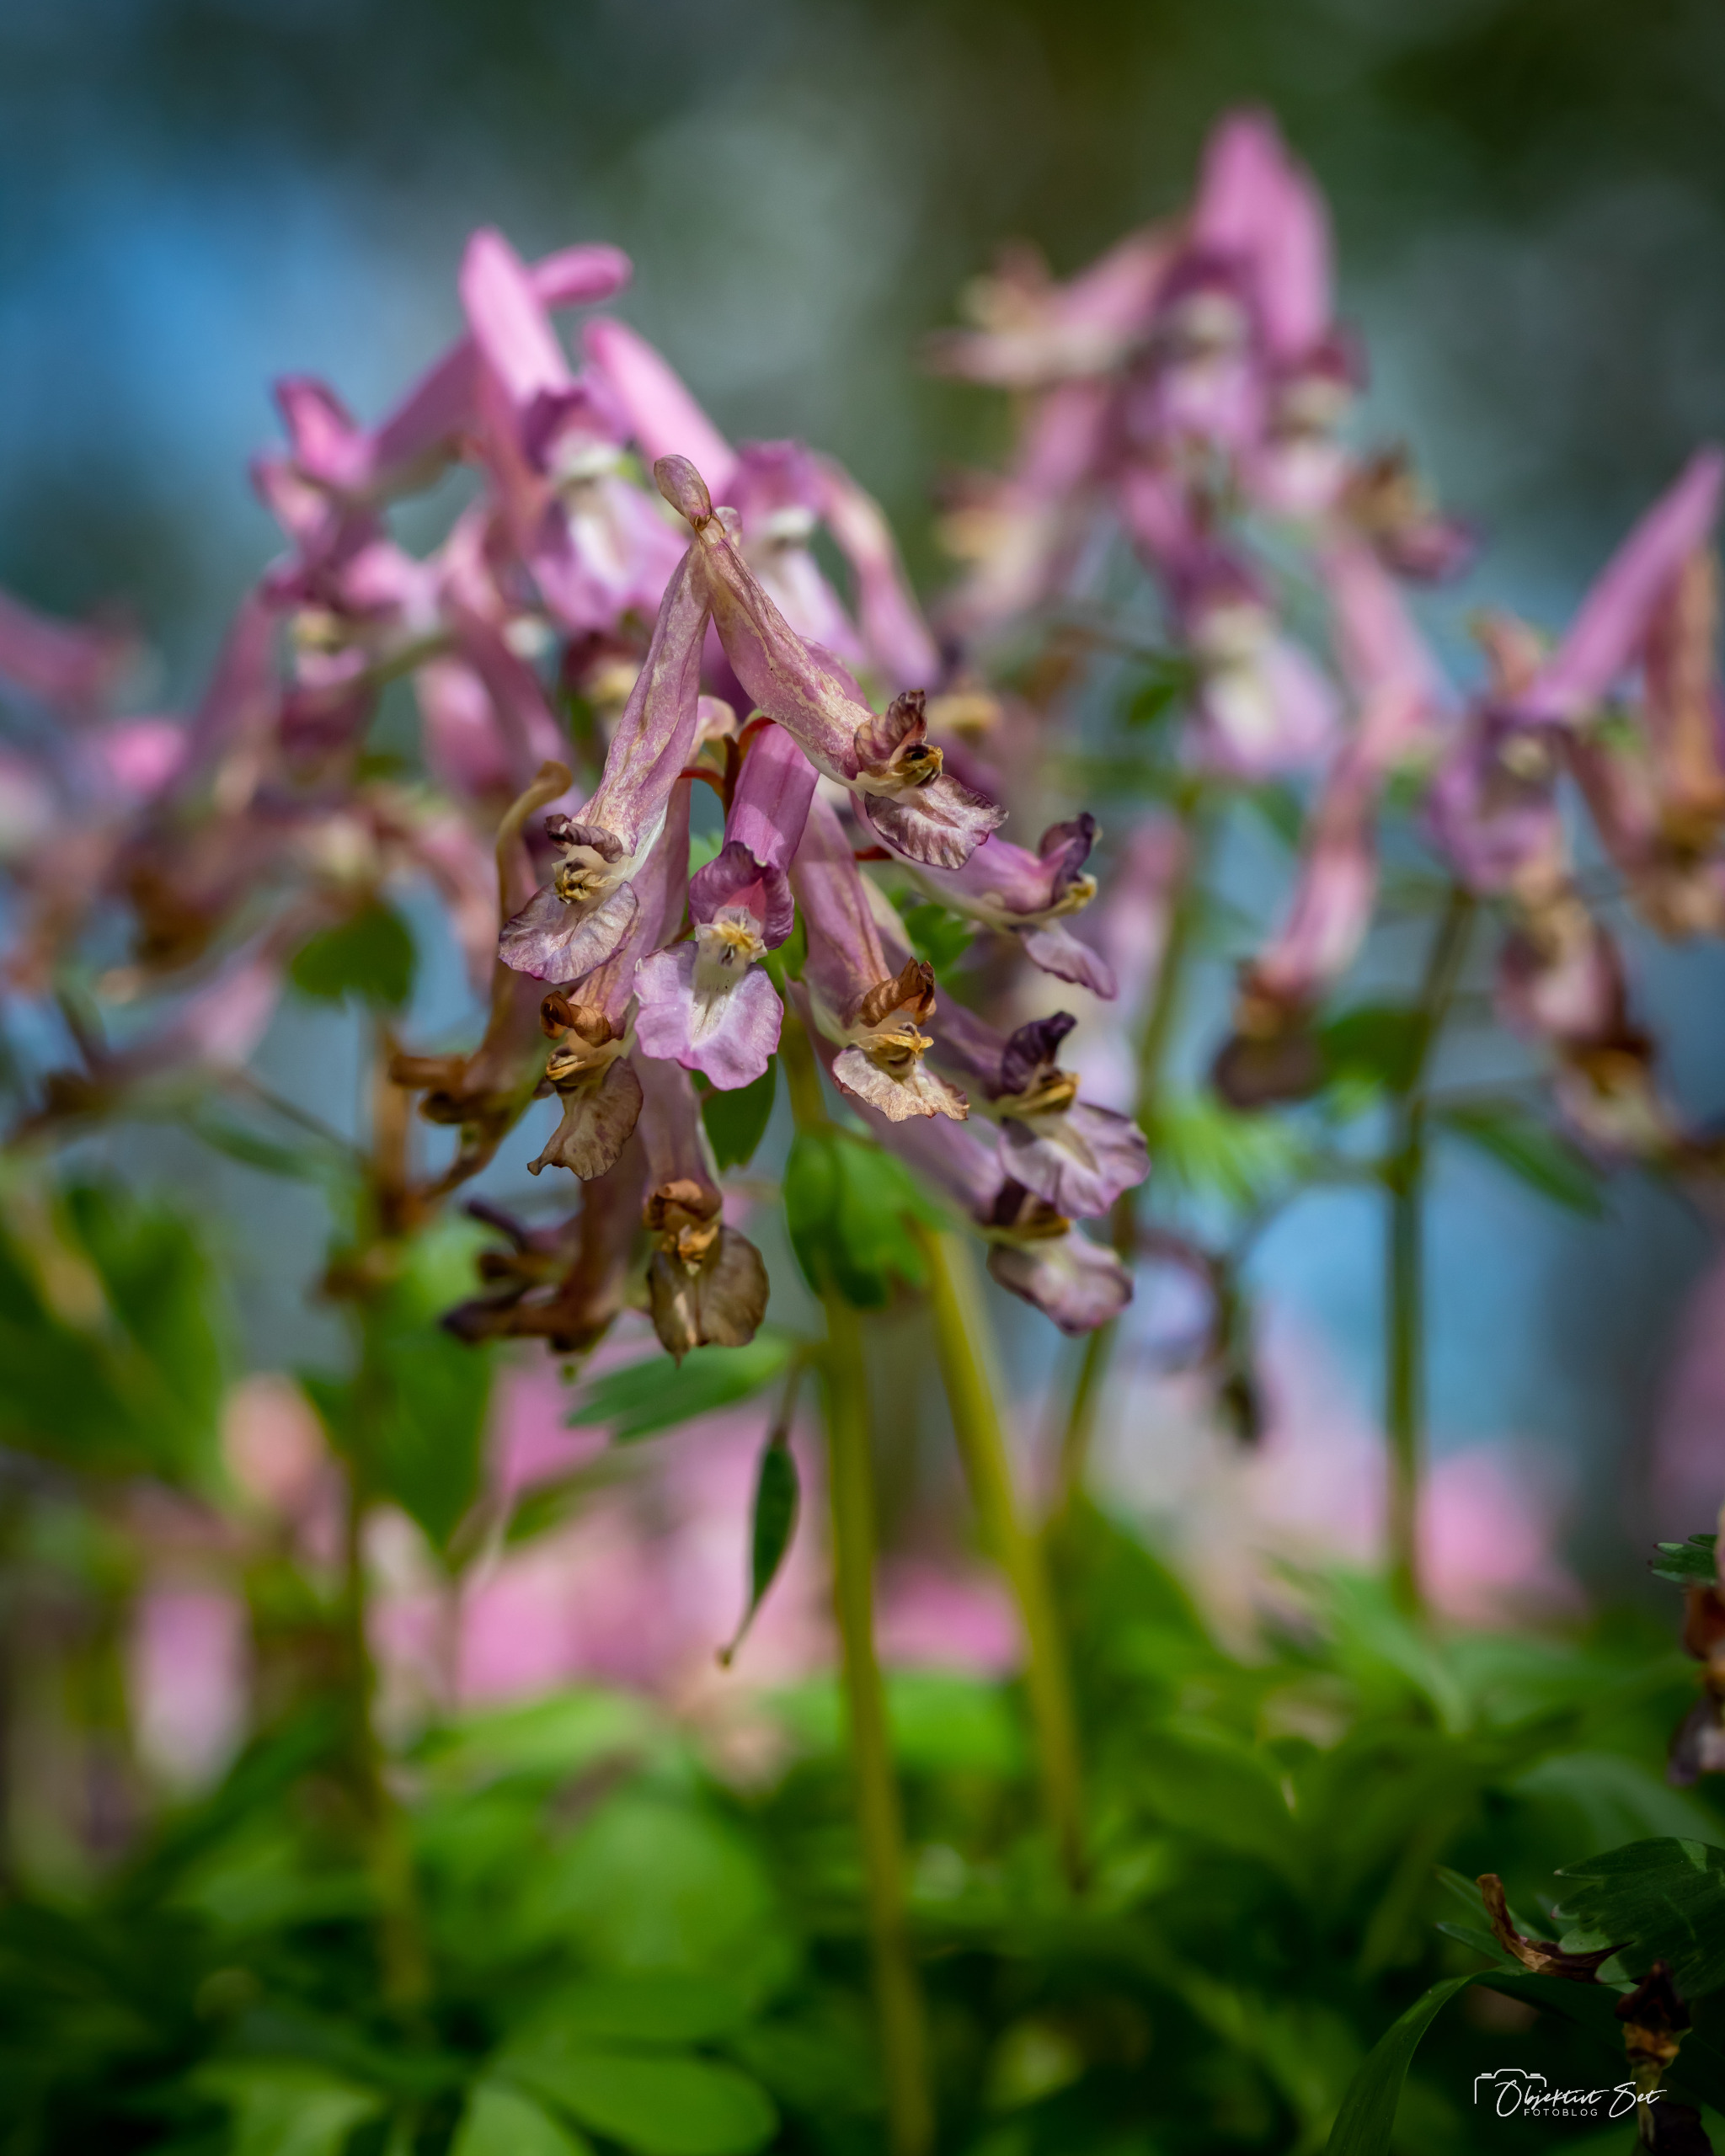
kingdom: Plantae
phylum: Tracheophyta
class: Magnoliopsida
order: Ranunculales
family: Papaveraceae
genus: Corydalis
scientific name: Corydalis solida
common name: Langstilket lærkespore
